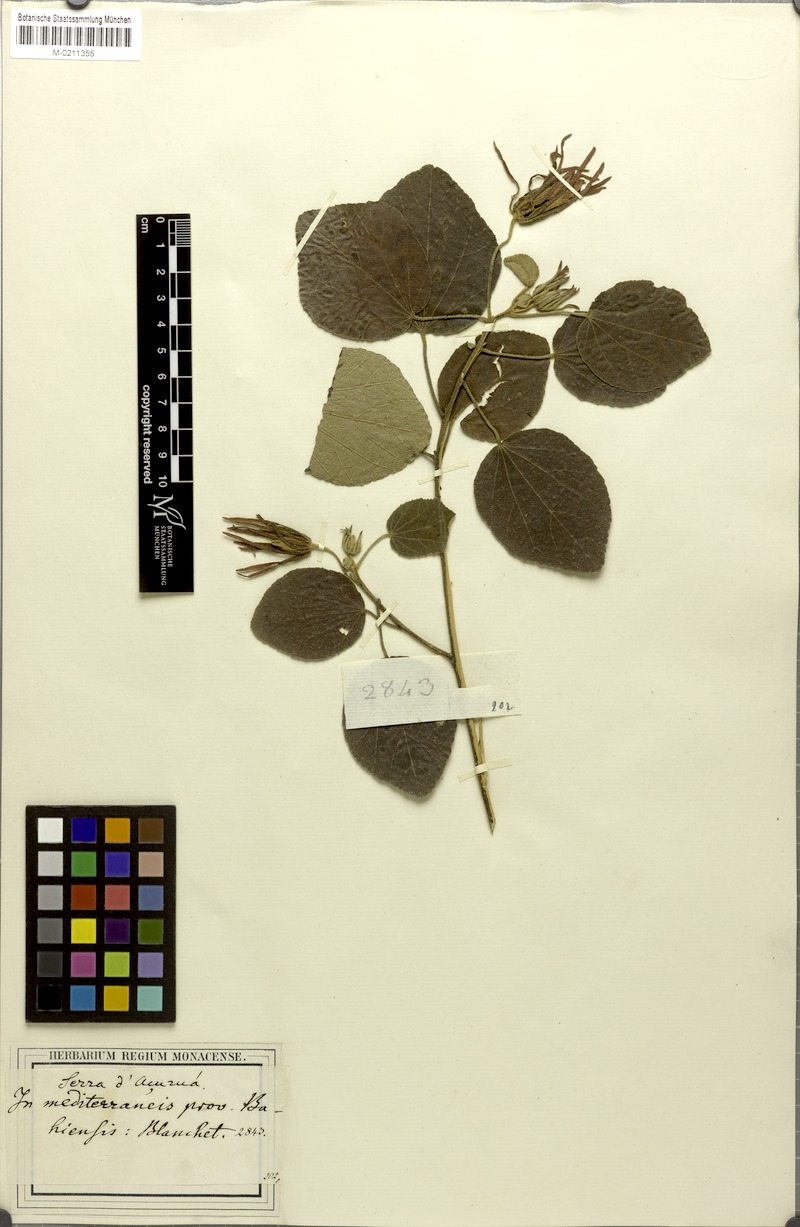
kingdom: Plantae
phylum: Tracheophyta
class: Magnoliopsida
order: Malvales
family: Malvaceae
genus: Pavonia
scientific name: Pavonia glazioviana
